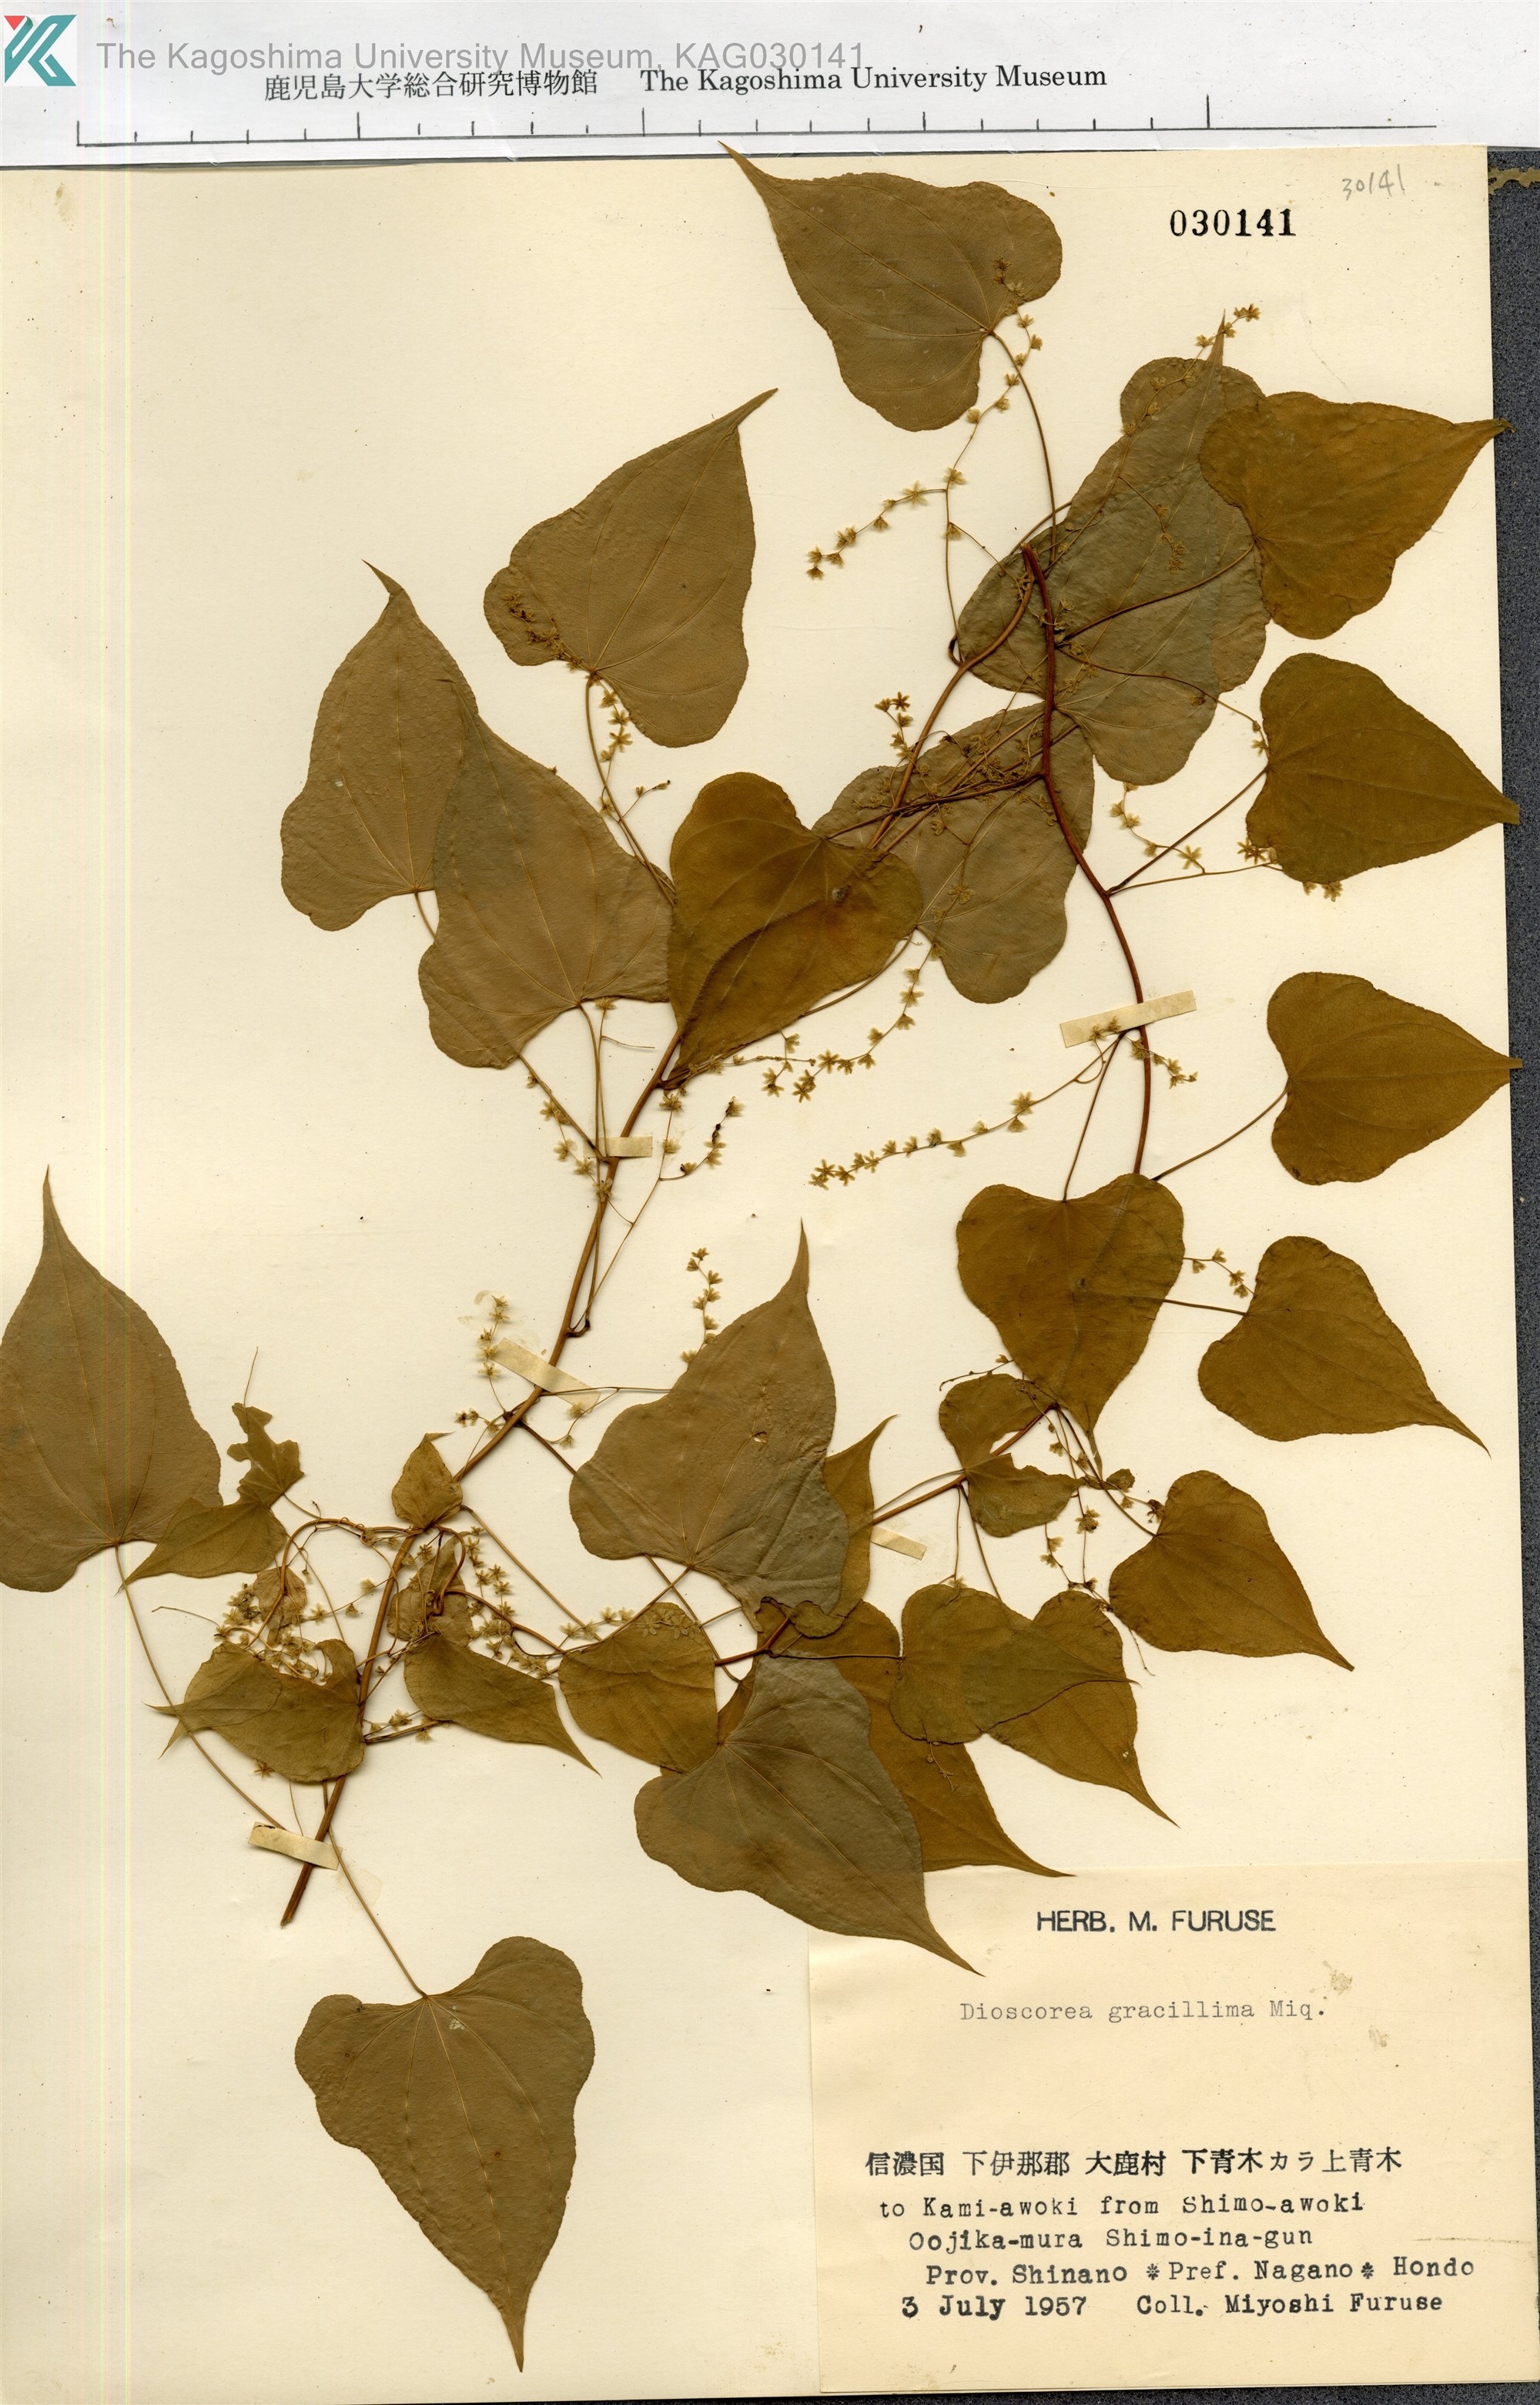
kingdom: Plantae
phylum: Tracheophyta
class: Liliopsida
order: Dioscoreales
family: Dioscoreaceae
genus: Dioscorea
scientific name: Dioscorea gracillima
